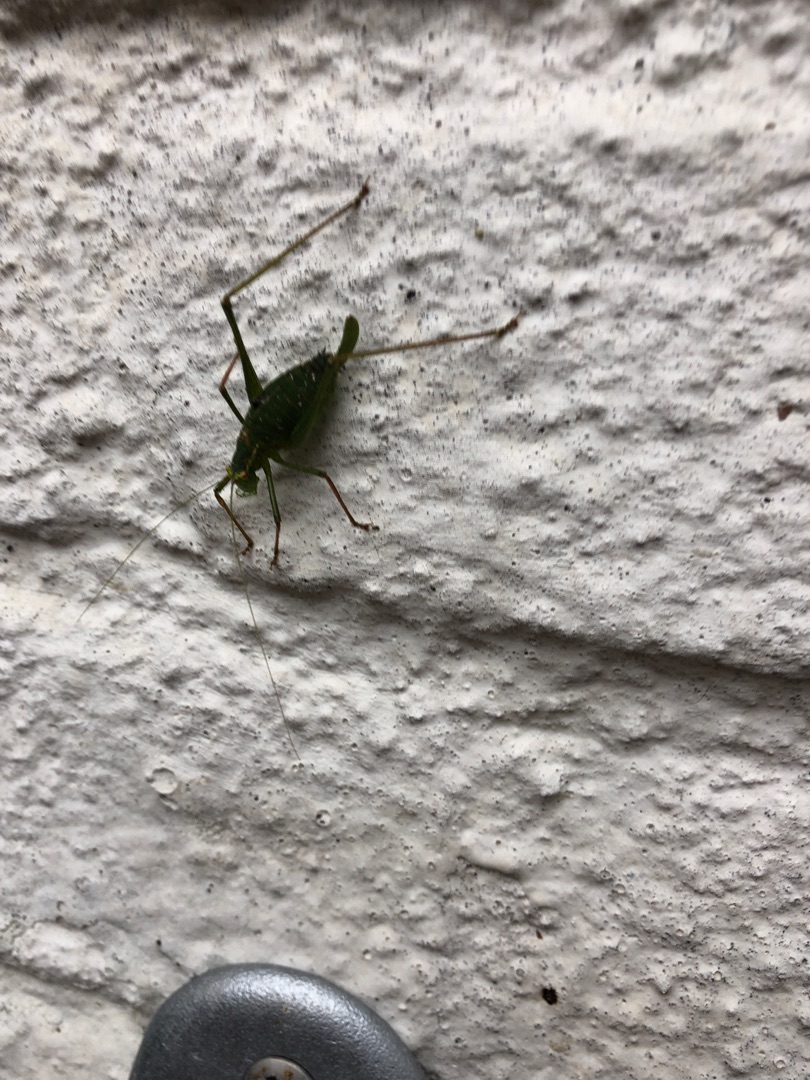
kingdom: Animalia
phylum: Arthropoda
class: Insecta
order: Orthoptera
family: Tettigoniidae
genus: Leptophyes
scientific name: Leptophyes punctatissima
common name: Krumknivgræshoppe
